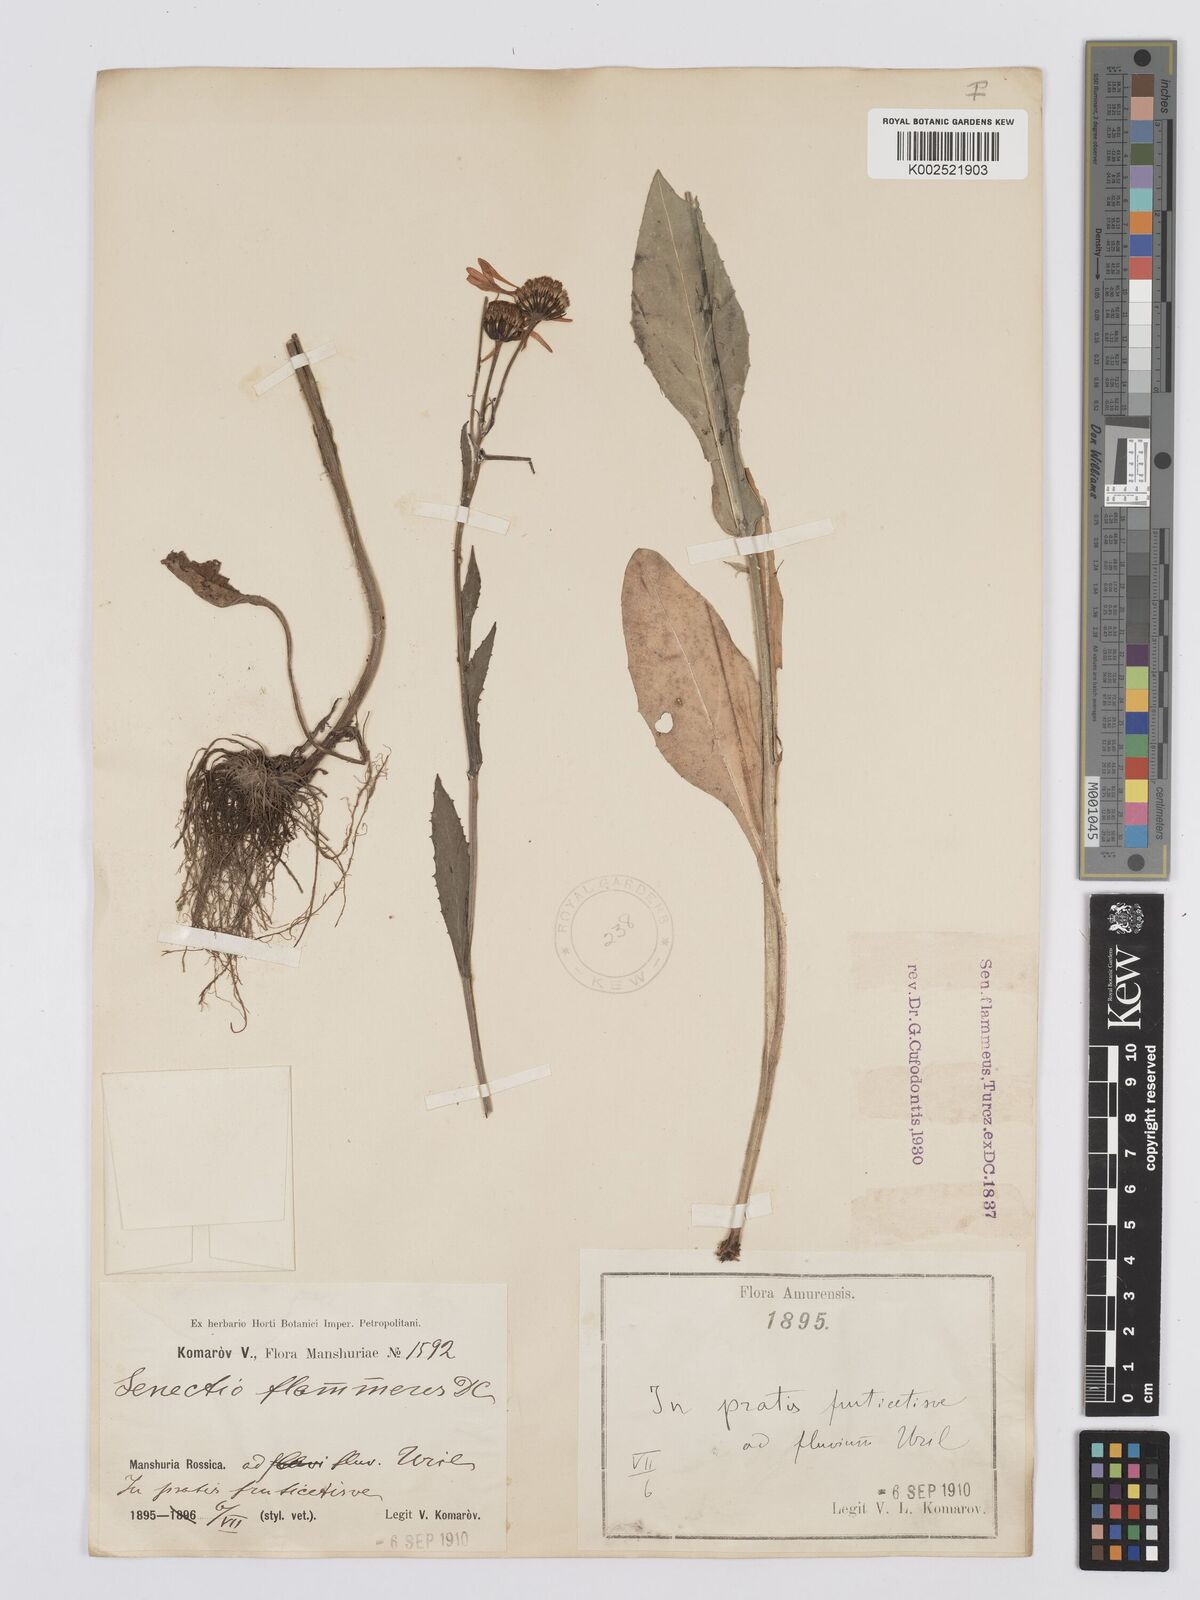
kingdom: Plantae
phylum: Tracheophyta
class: Magnoliopsida
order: Asterales
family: Asteraceae
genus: Tephroseris
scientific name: Tephroseris flammea
